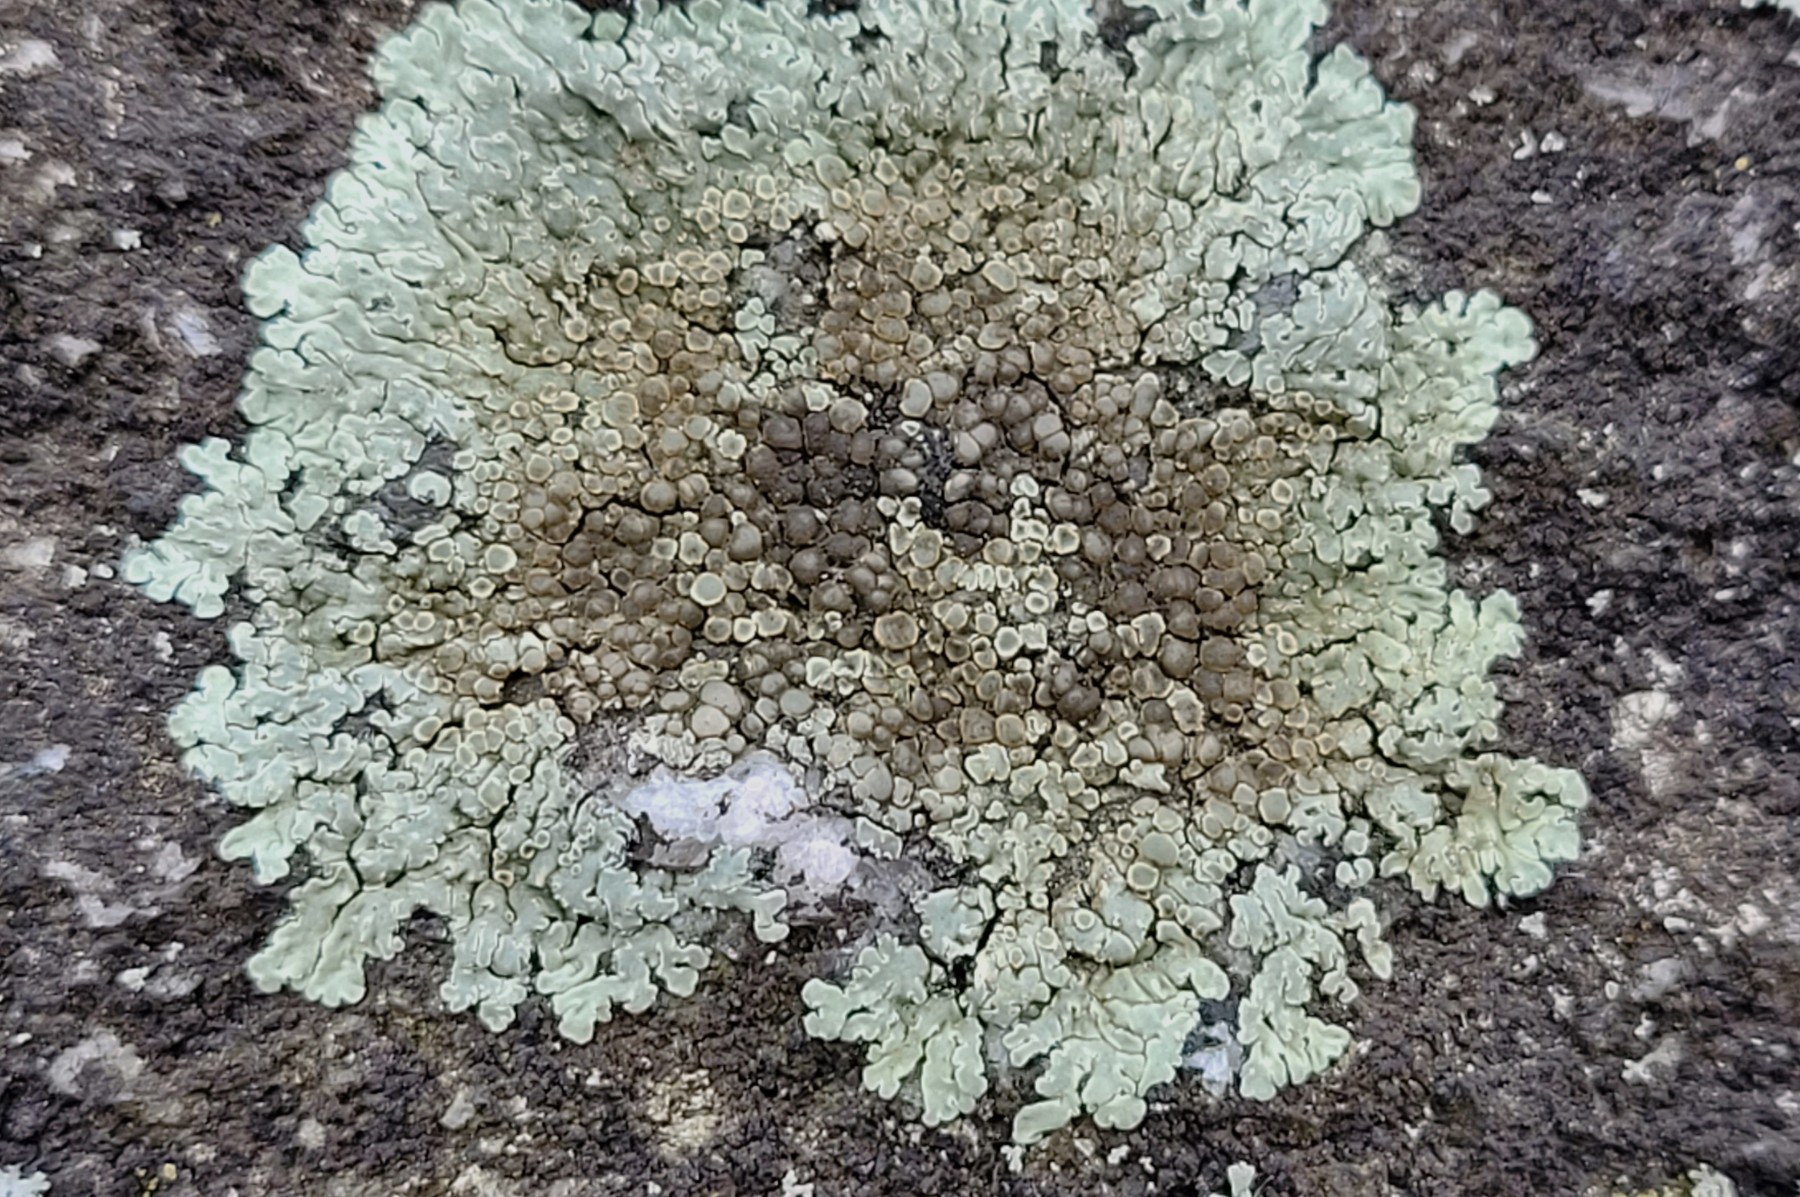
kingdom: Fungi
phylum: Ascomycota
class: Lecanoromycetes
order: Lecanorales
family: Lecanoraceae
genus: Protoparmeliopsis
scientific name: Protoparmeliopsis muralis
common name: randfliget kantskivelav
